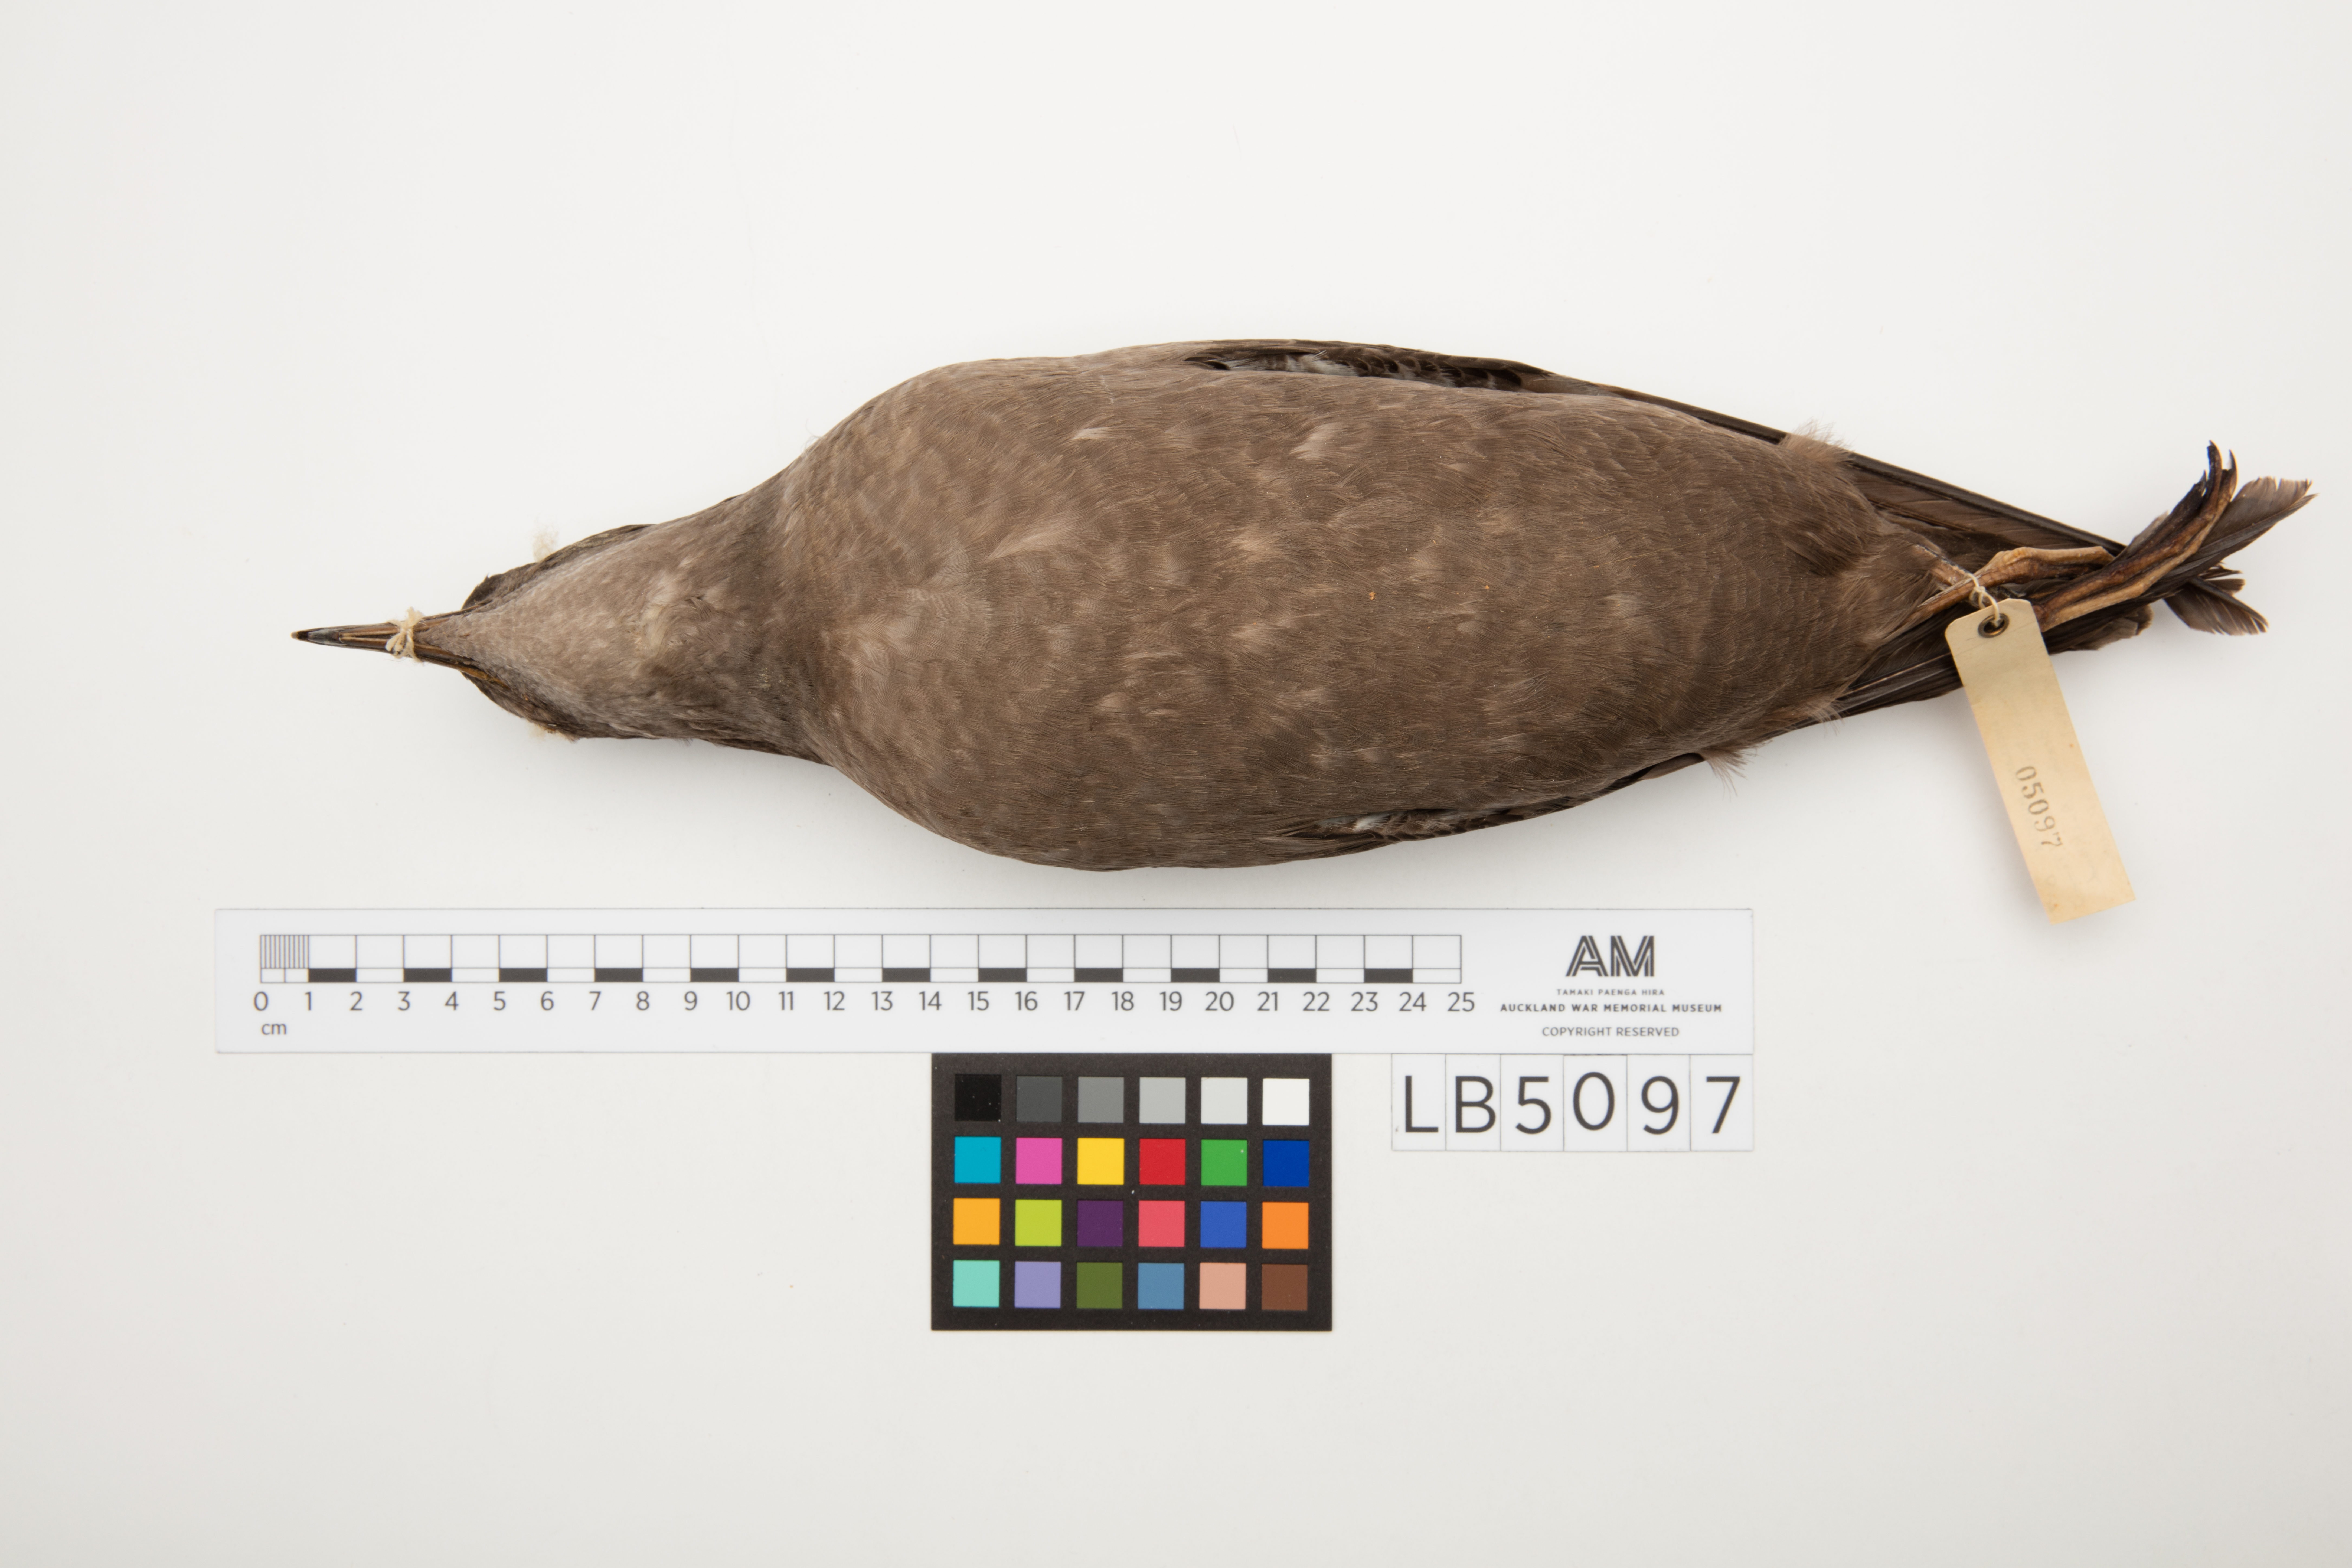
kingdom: Animalia
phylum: Chordata
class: Aves
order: Procellariiformes
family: Procellariidae
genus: Puffinus
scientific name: Puffinus tenuirostris
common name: Short-tailed shearwater
